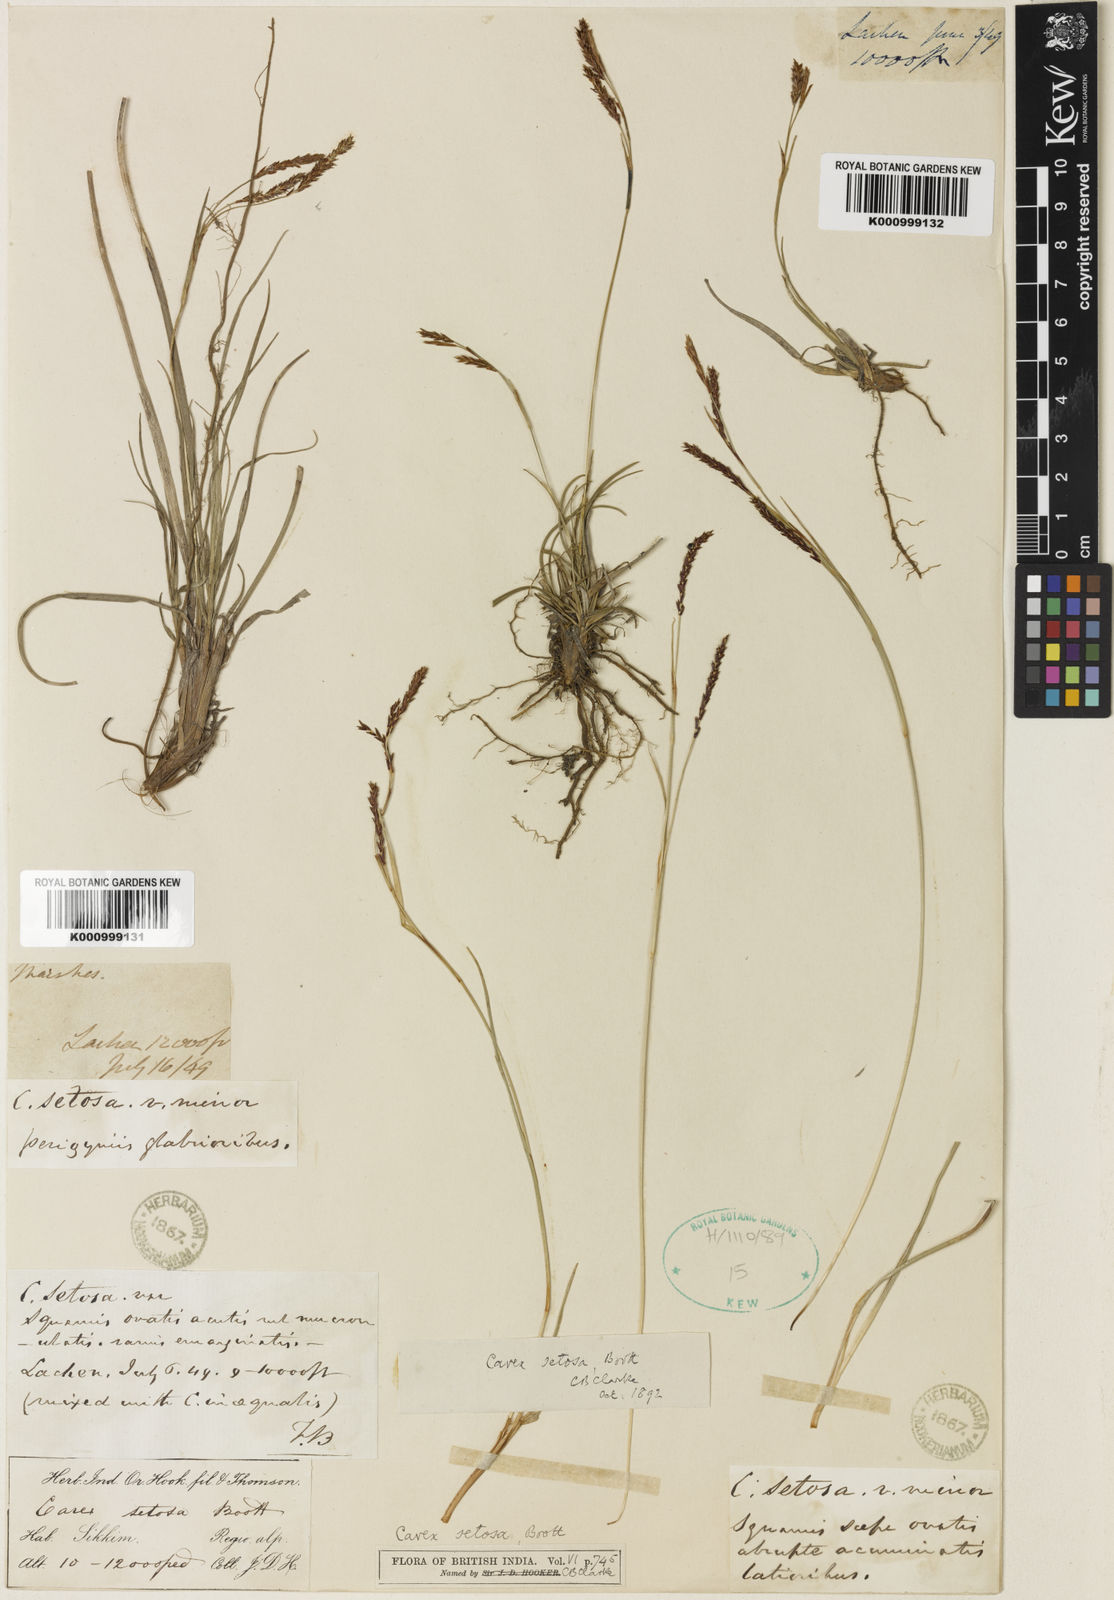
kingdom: Plantae
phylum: Tracheophyta
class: Liliopsida
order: Poales
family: Cyperaceae
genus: Carex
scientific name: Carex setosa
